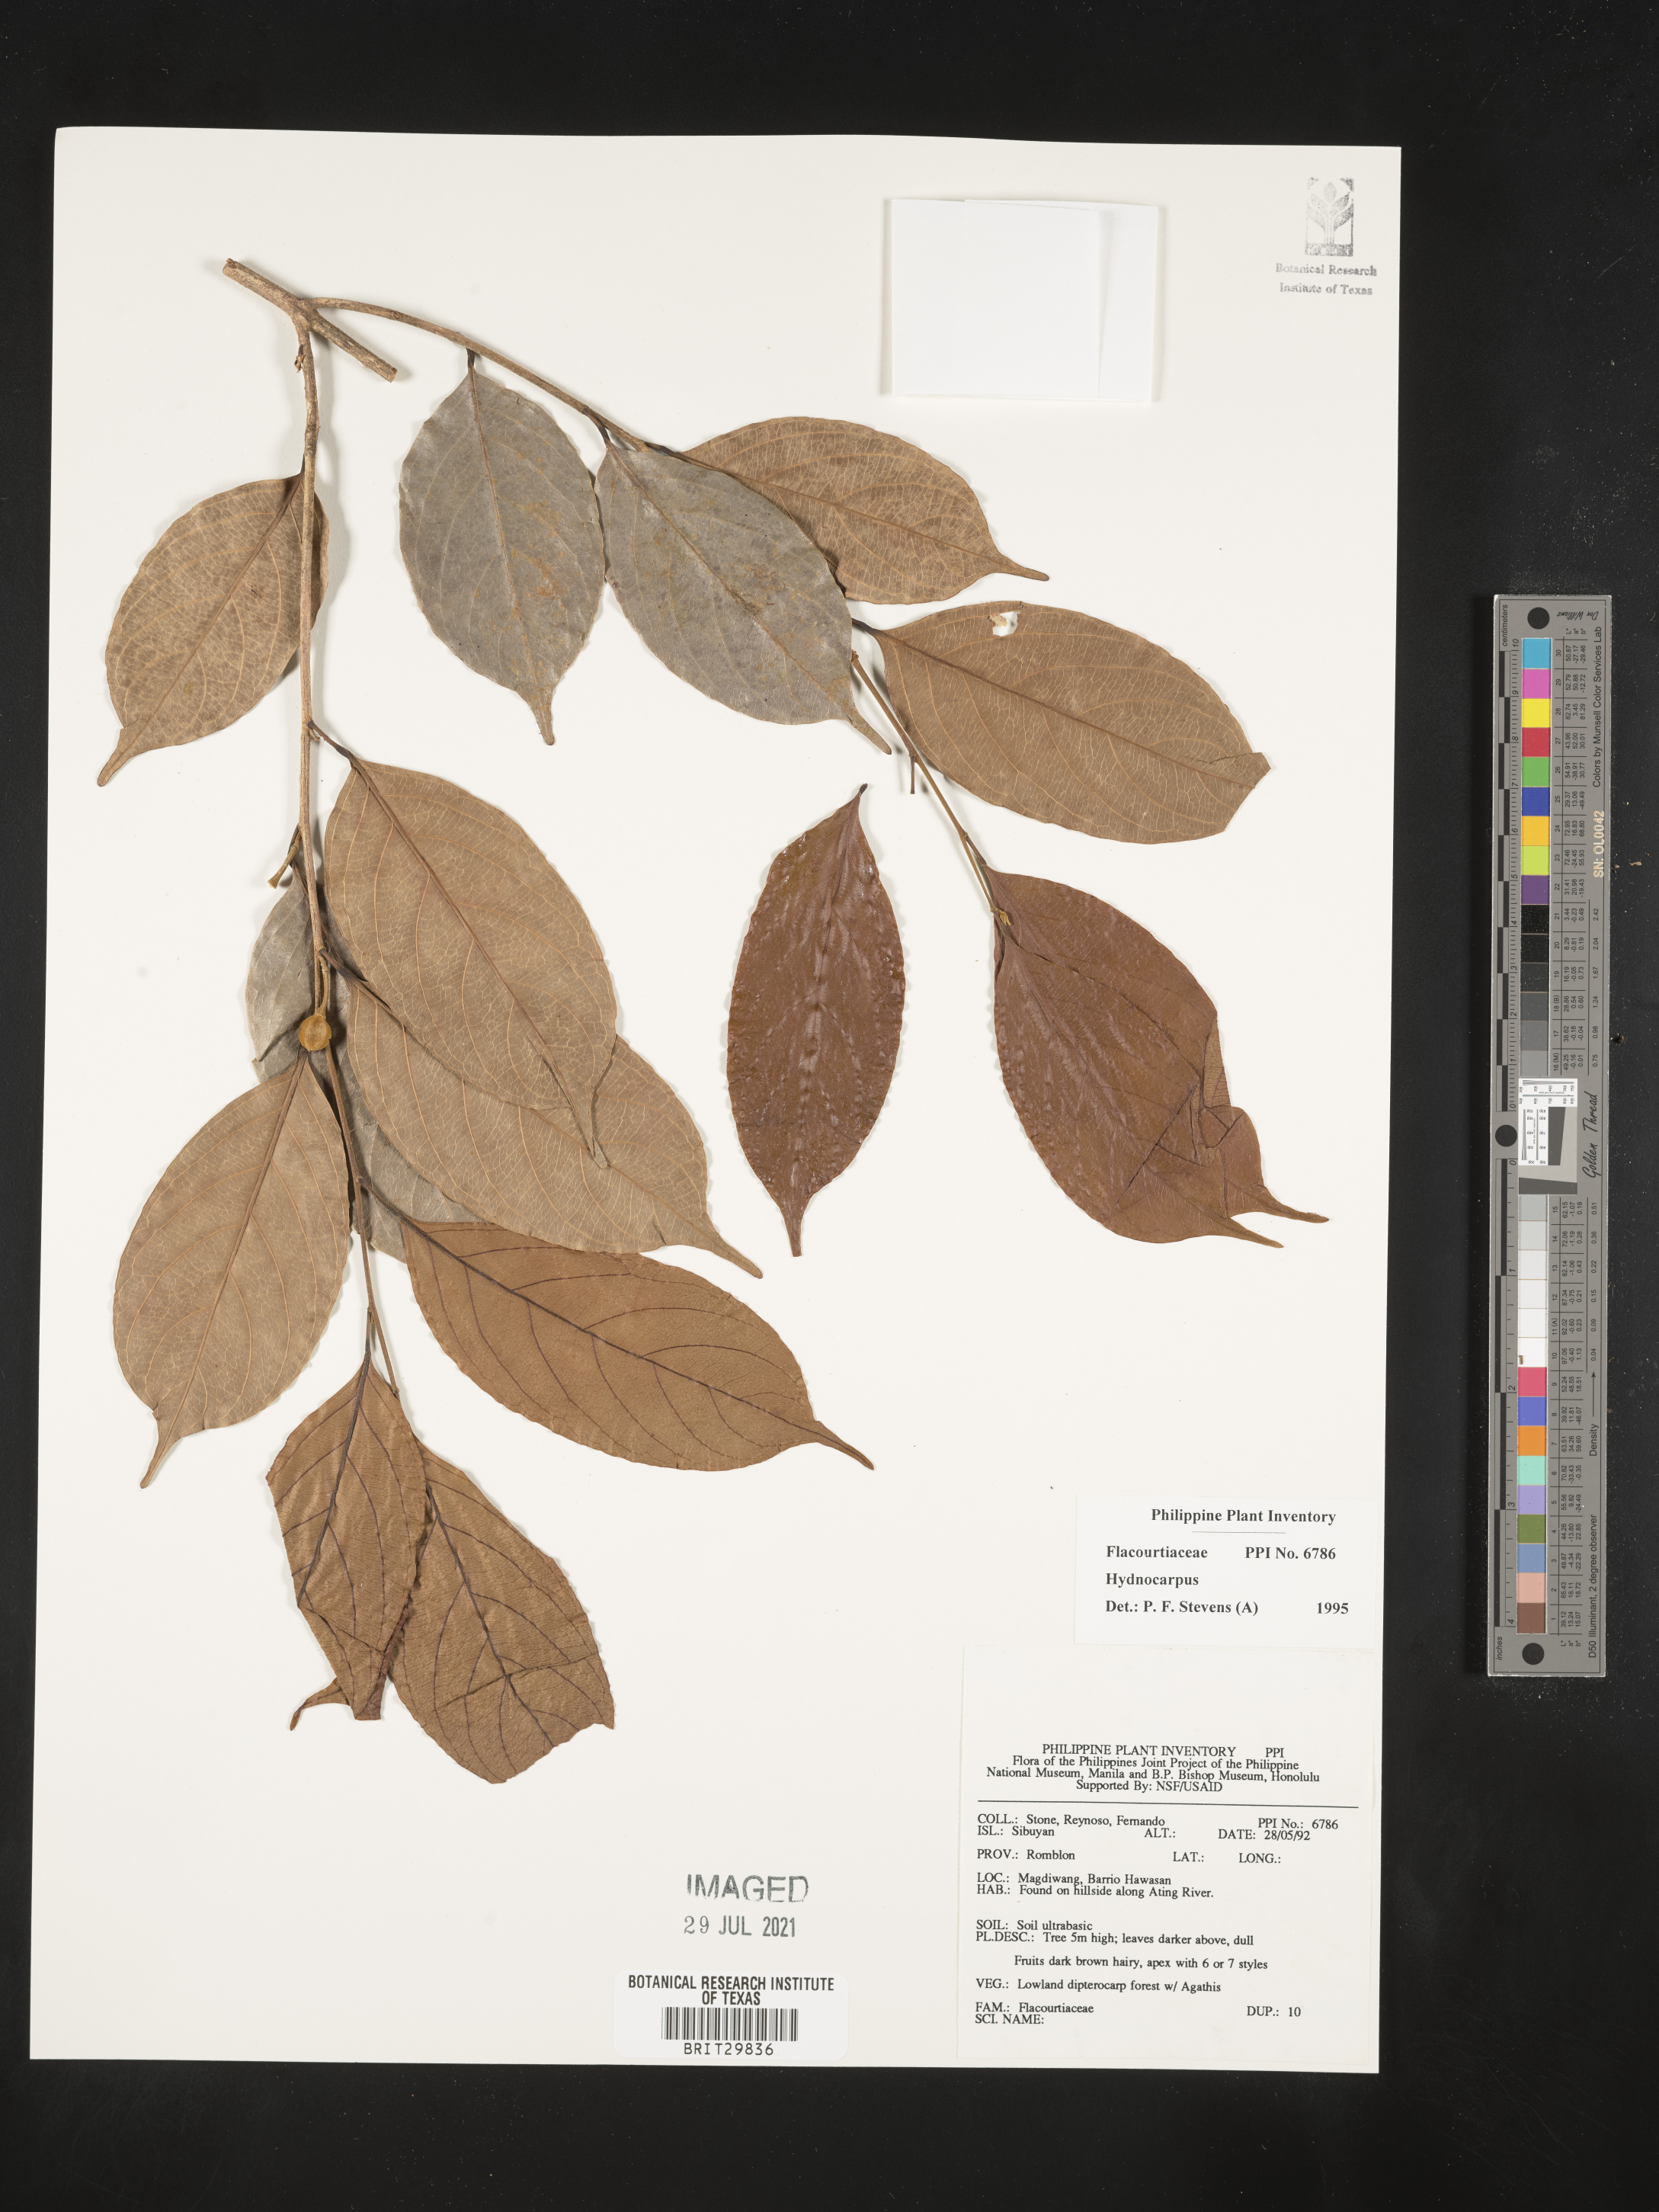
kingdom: Plantae
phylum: Tracheophyta
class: Magnoliopsida
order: Malpighiales
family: Achariaceae
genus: Hydnocarpus
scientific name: Hydnocarpus
